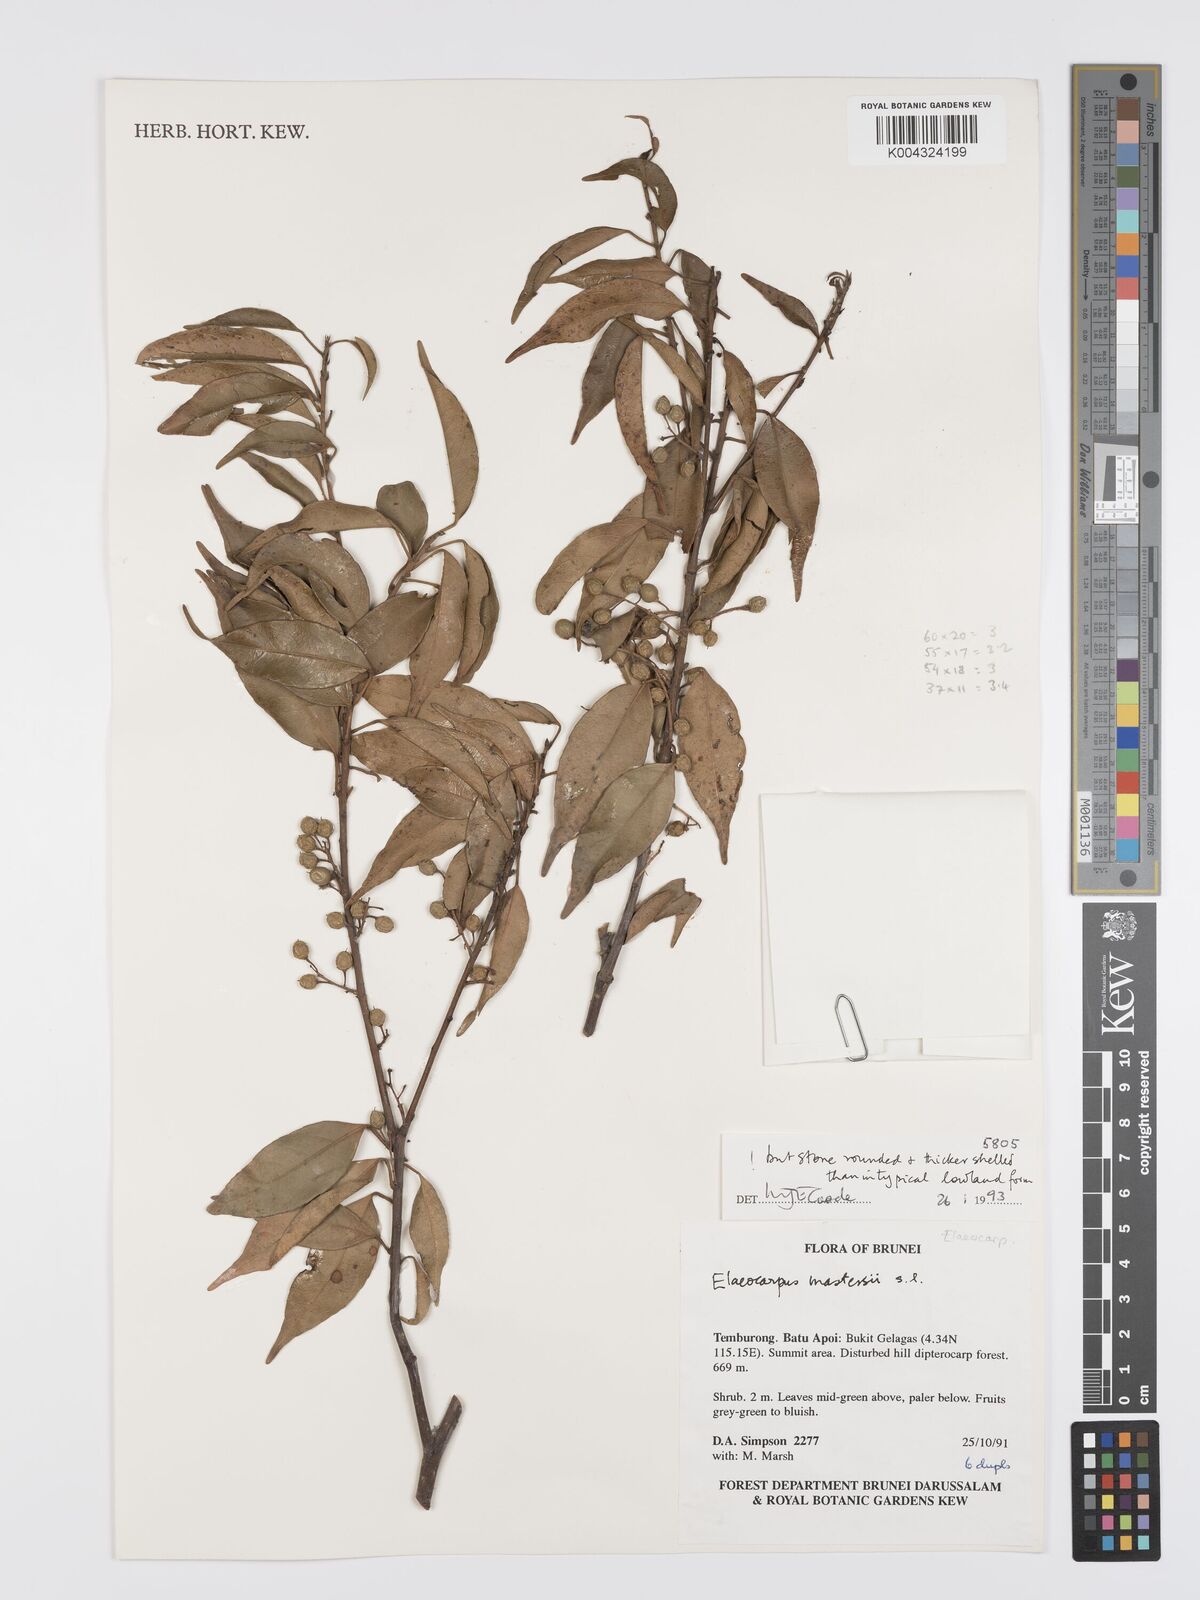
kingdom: Plantae
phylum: Tracheophyta
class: Magnoliopsida
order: Oxalidales
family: Elaeocarpaceae
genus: Elaeocarpus
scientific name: Elaeocarpus mastersii
